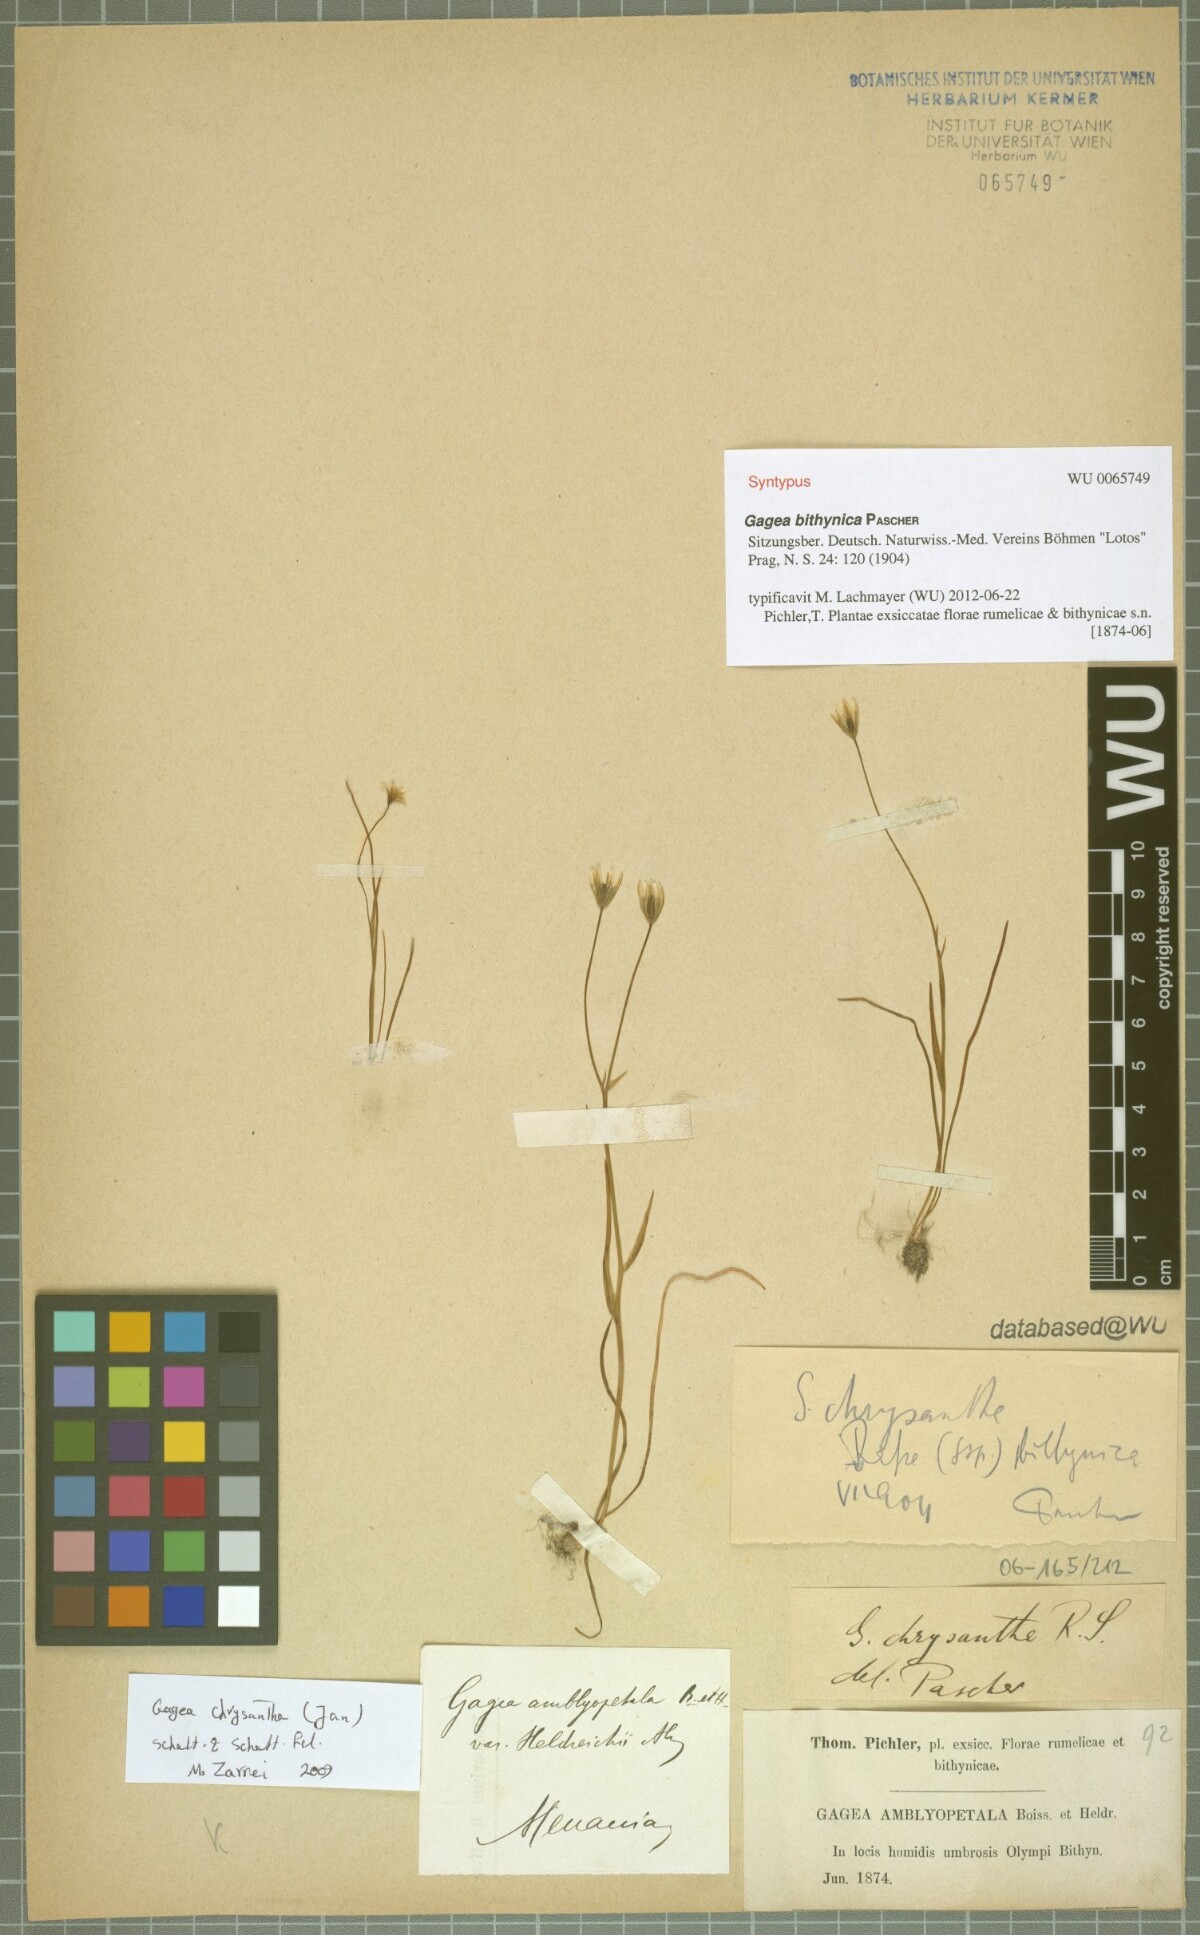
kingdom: Plantae
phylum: Tracheophyta
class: Liliopsida
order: Liliales
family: Liliaceae
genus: Gagea
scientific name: Gagea bithynica
